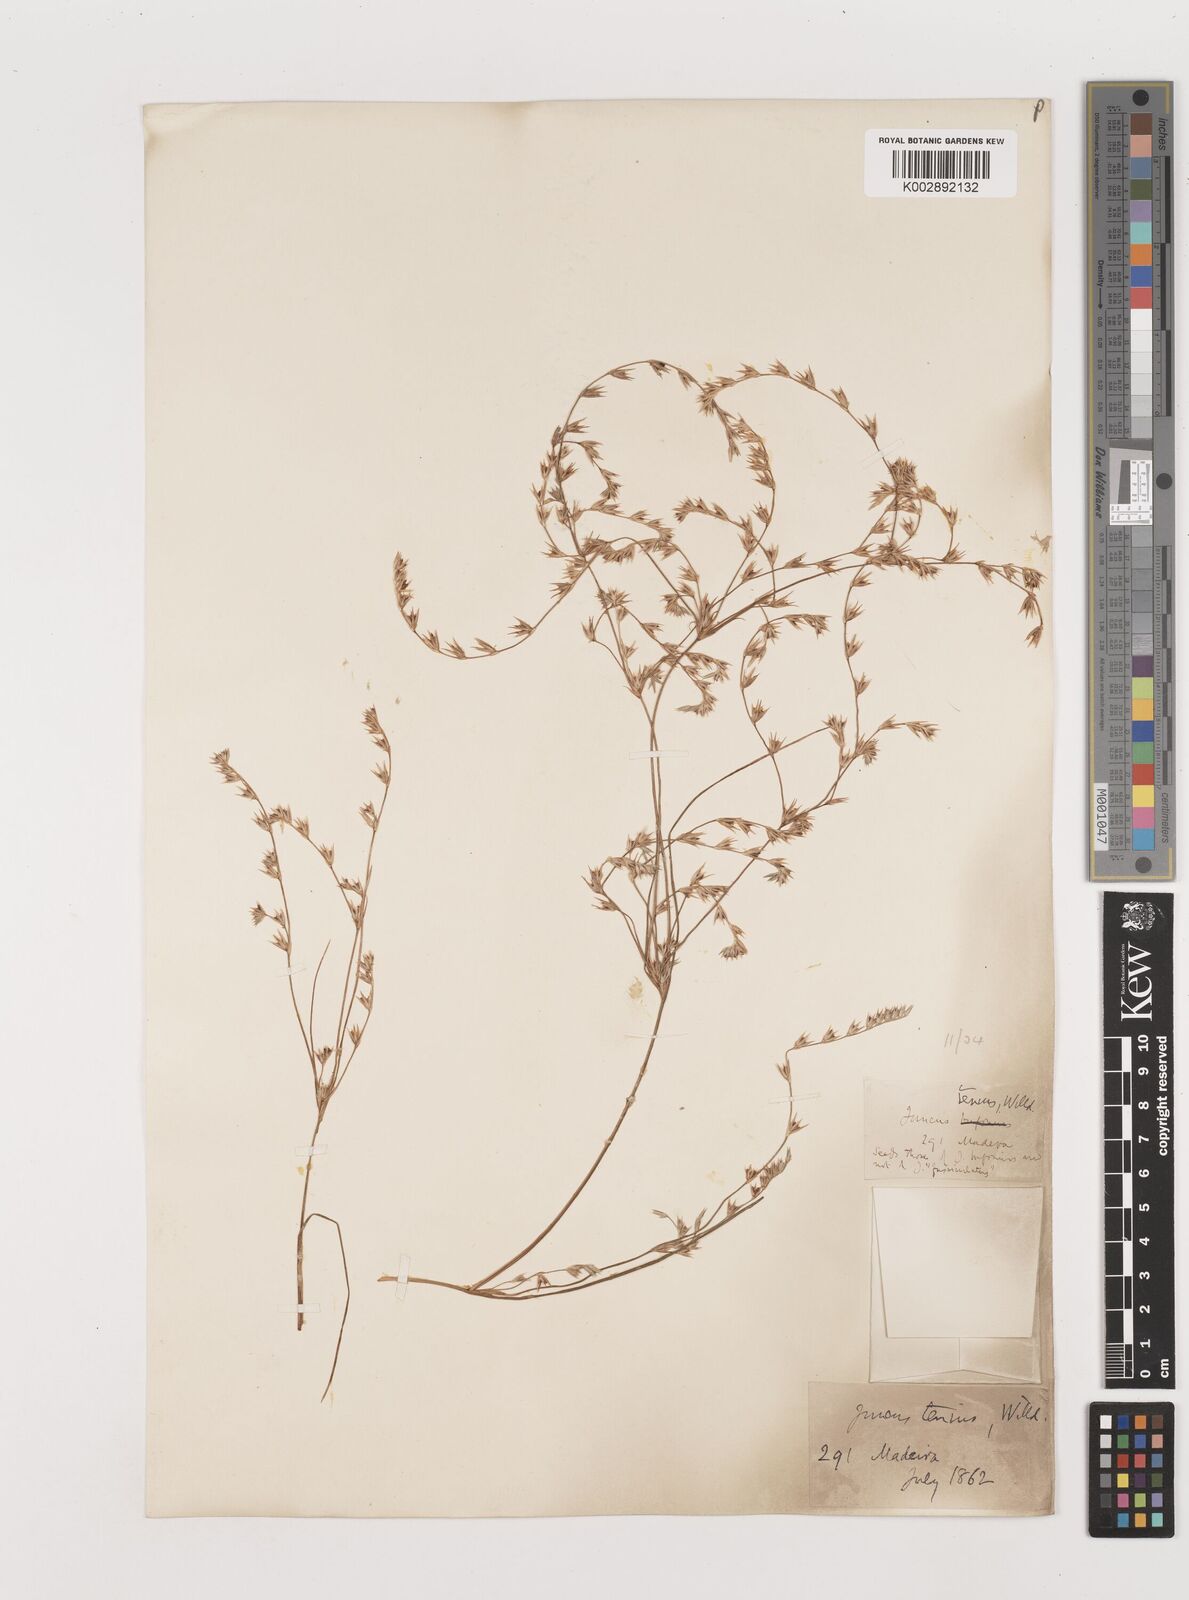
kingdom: Plantae
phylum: Tracheophyta
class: Liliopsida
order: Poales
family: Juncaceae
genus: Juncus
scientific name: Juncus tenuis
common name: Slender rush
